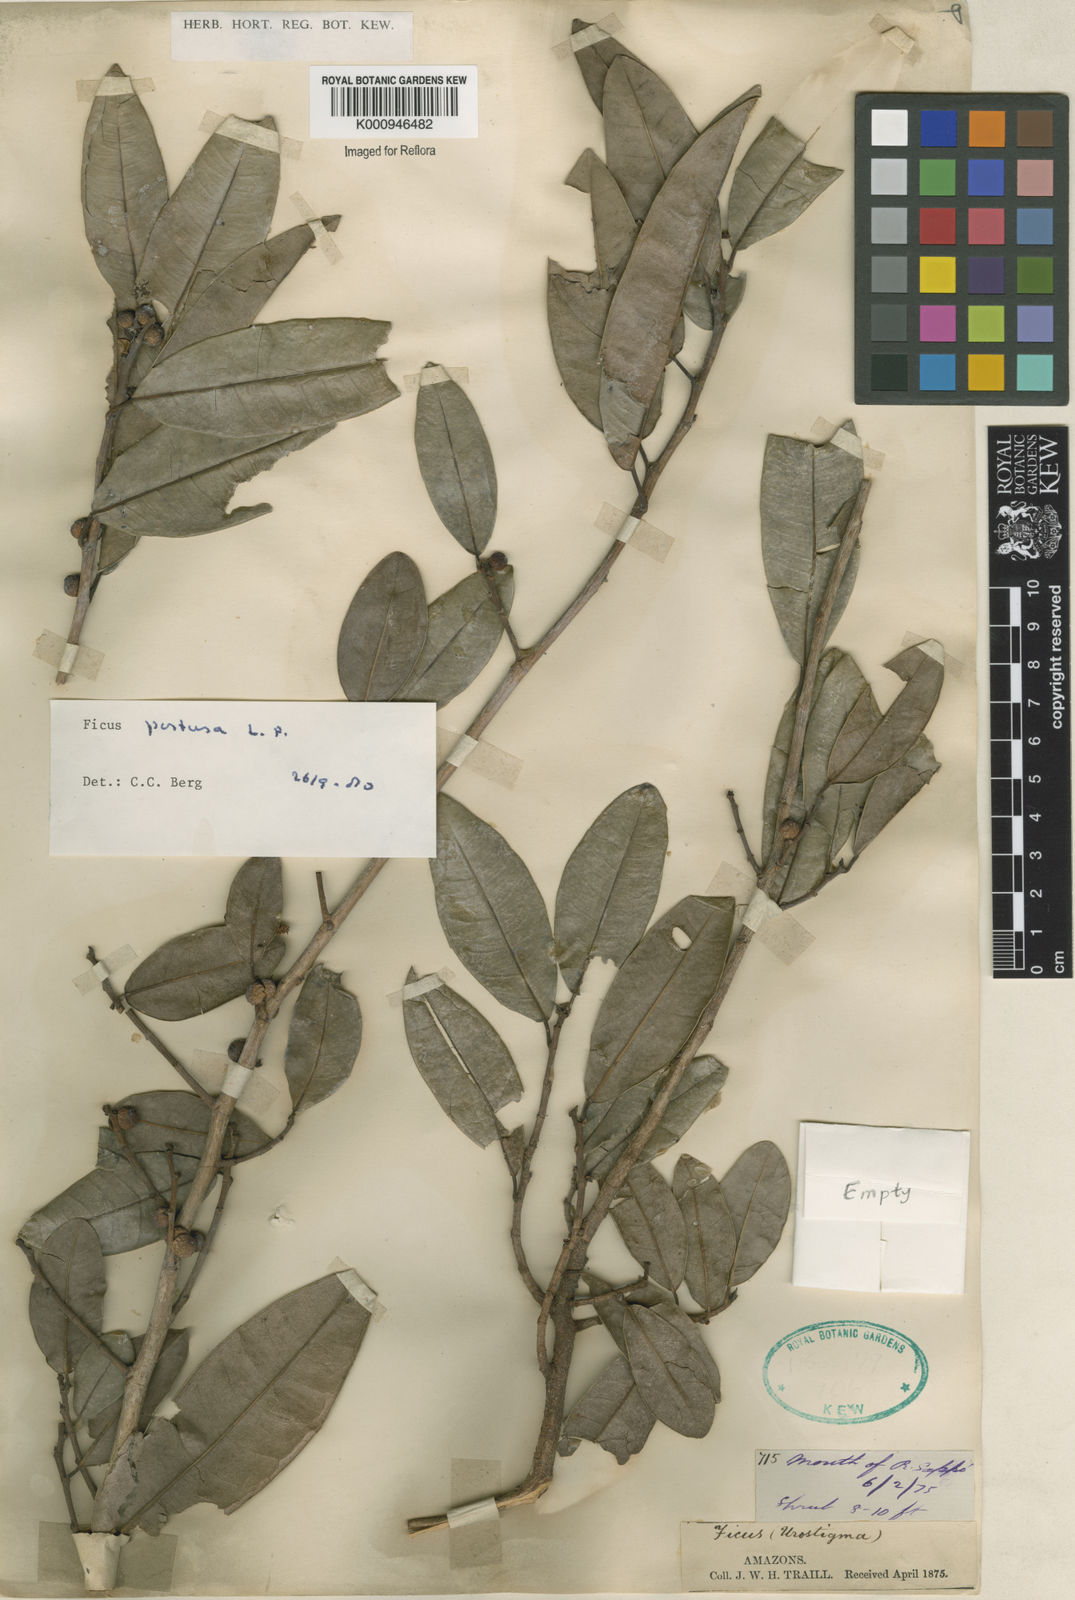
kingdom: Plantae
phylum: Tracheophyta
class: Magnoliopsida
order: Rosales
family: Moraceae
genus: Ficus
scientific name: Ficus pertusa
